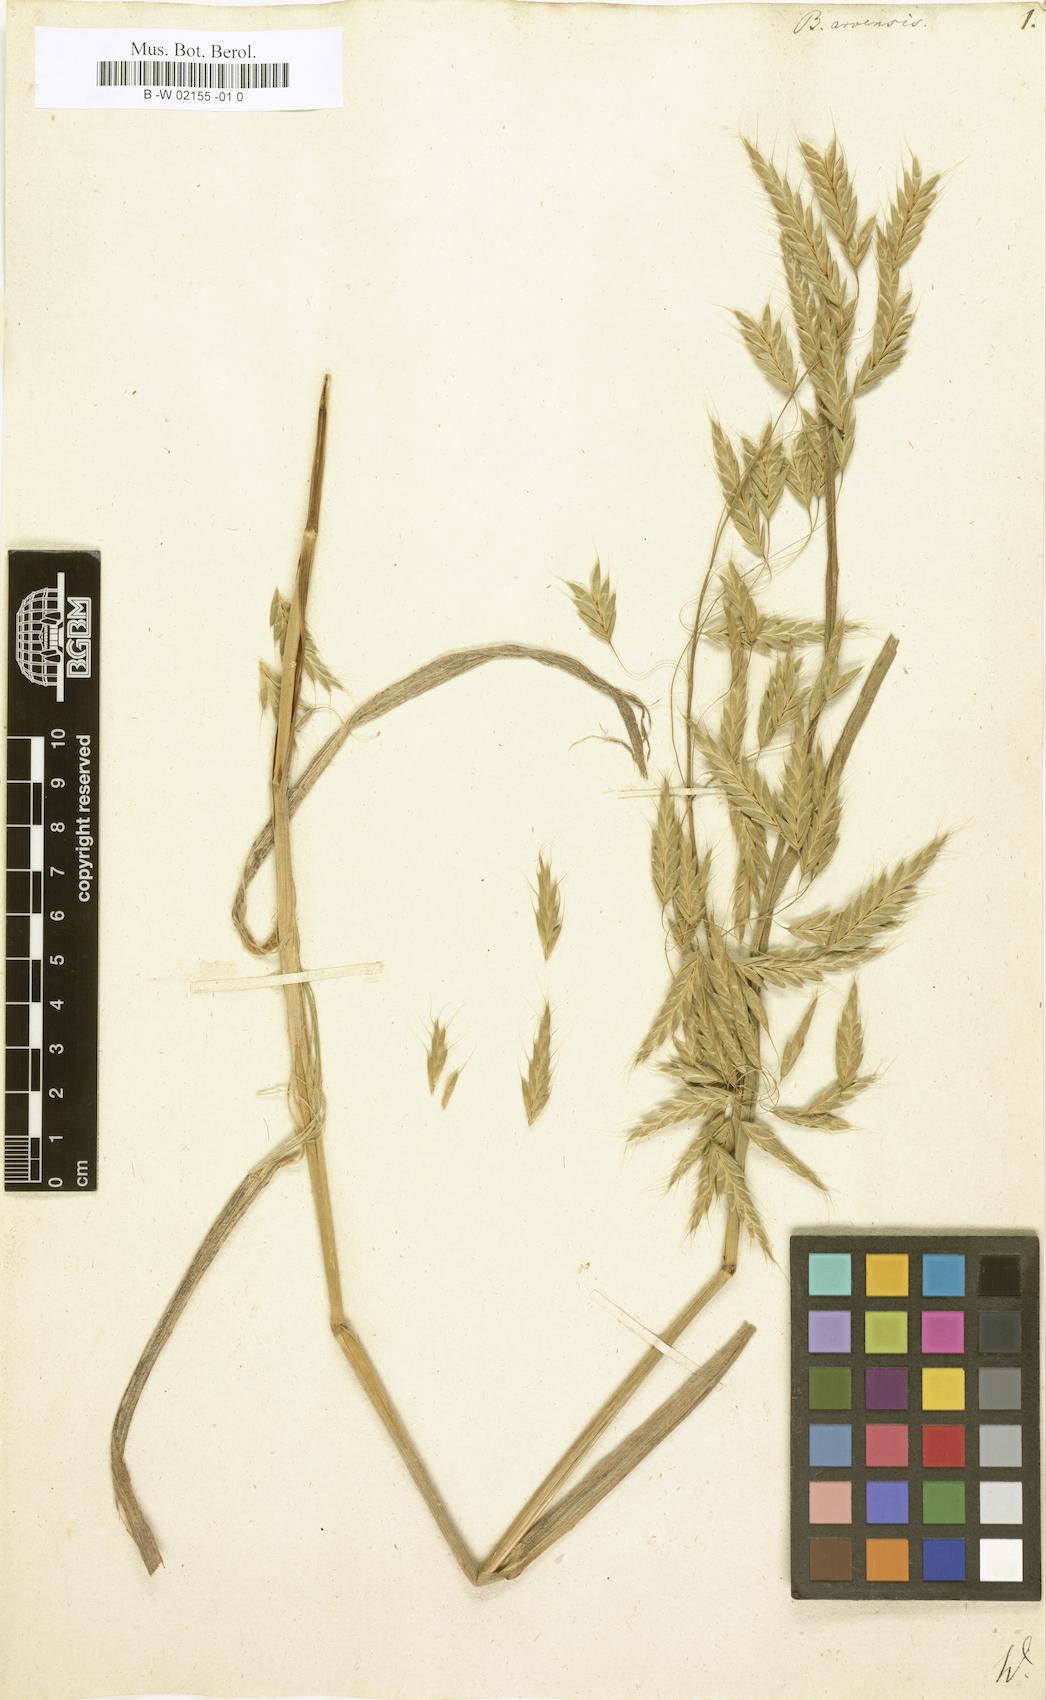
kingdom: Plantae
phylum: Tracheophyta
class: Liliopsida
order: Poales
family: Poaceae
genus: Bromus
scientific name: Bromus arvensis
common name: Field brome
